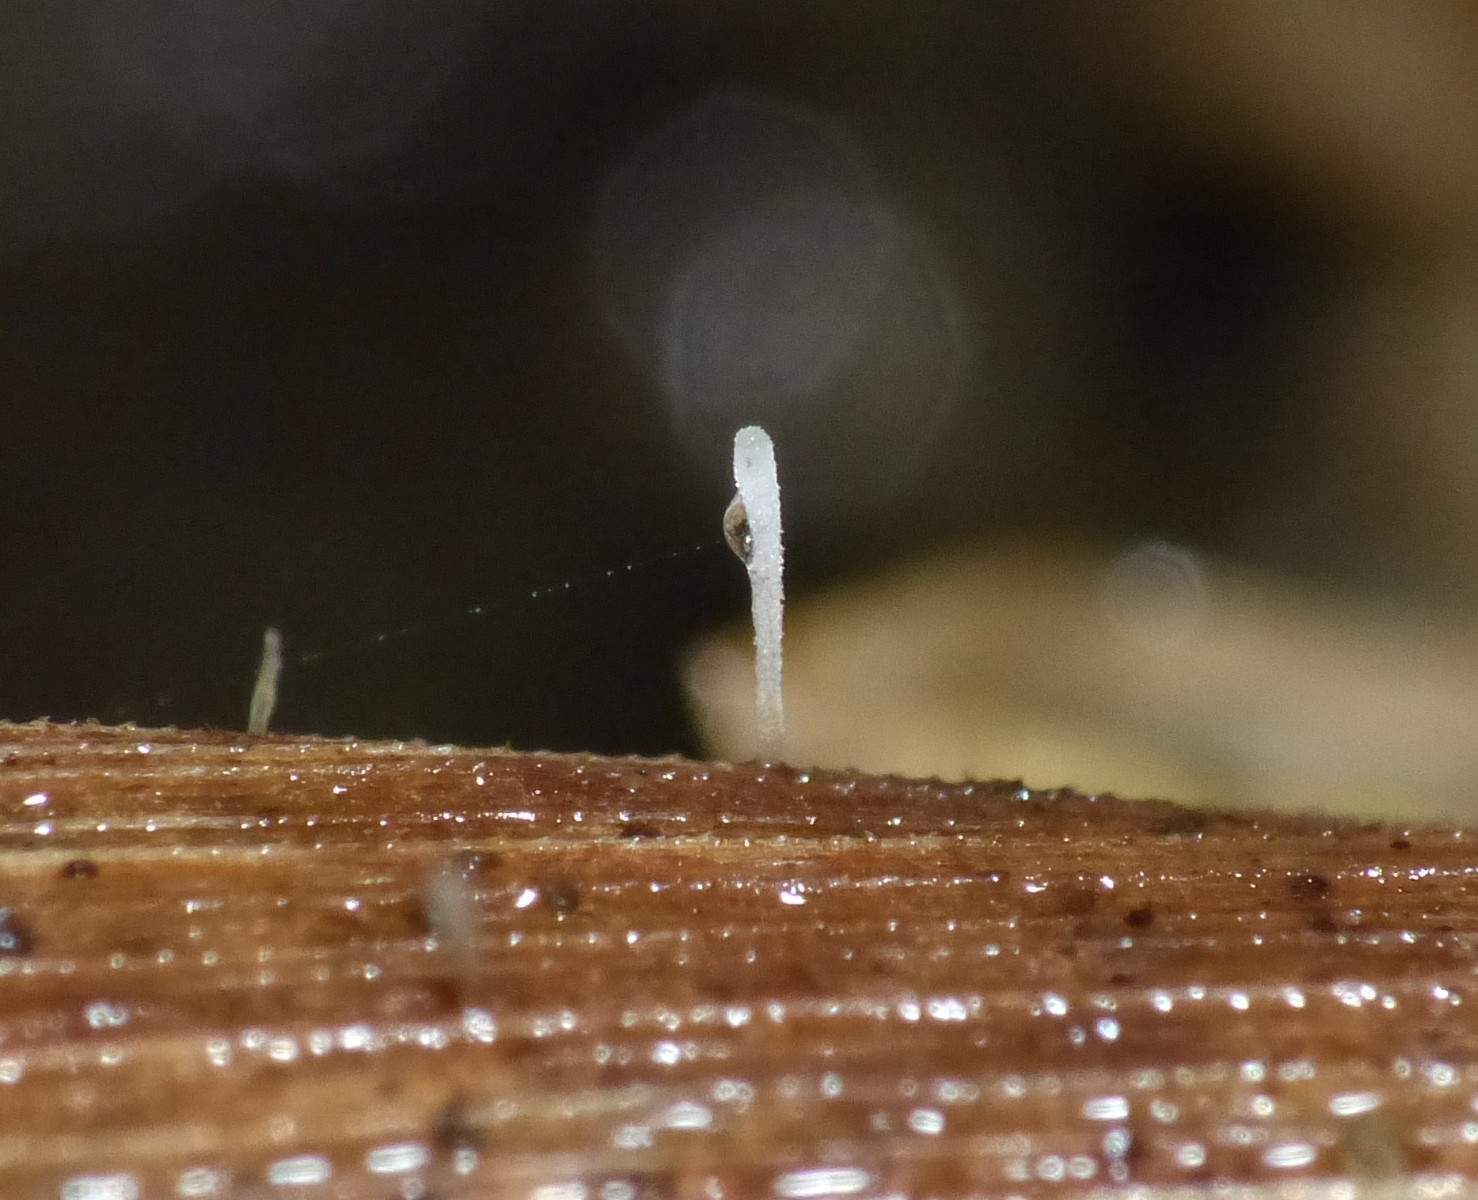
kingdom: Fungi
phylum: Basidiomycota
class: Agaricomycetes
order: Agaricales
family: Pterulaceae
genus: Pterulicium
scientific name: Pterulicium gracile
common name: trådformet fjerkølle
